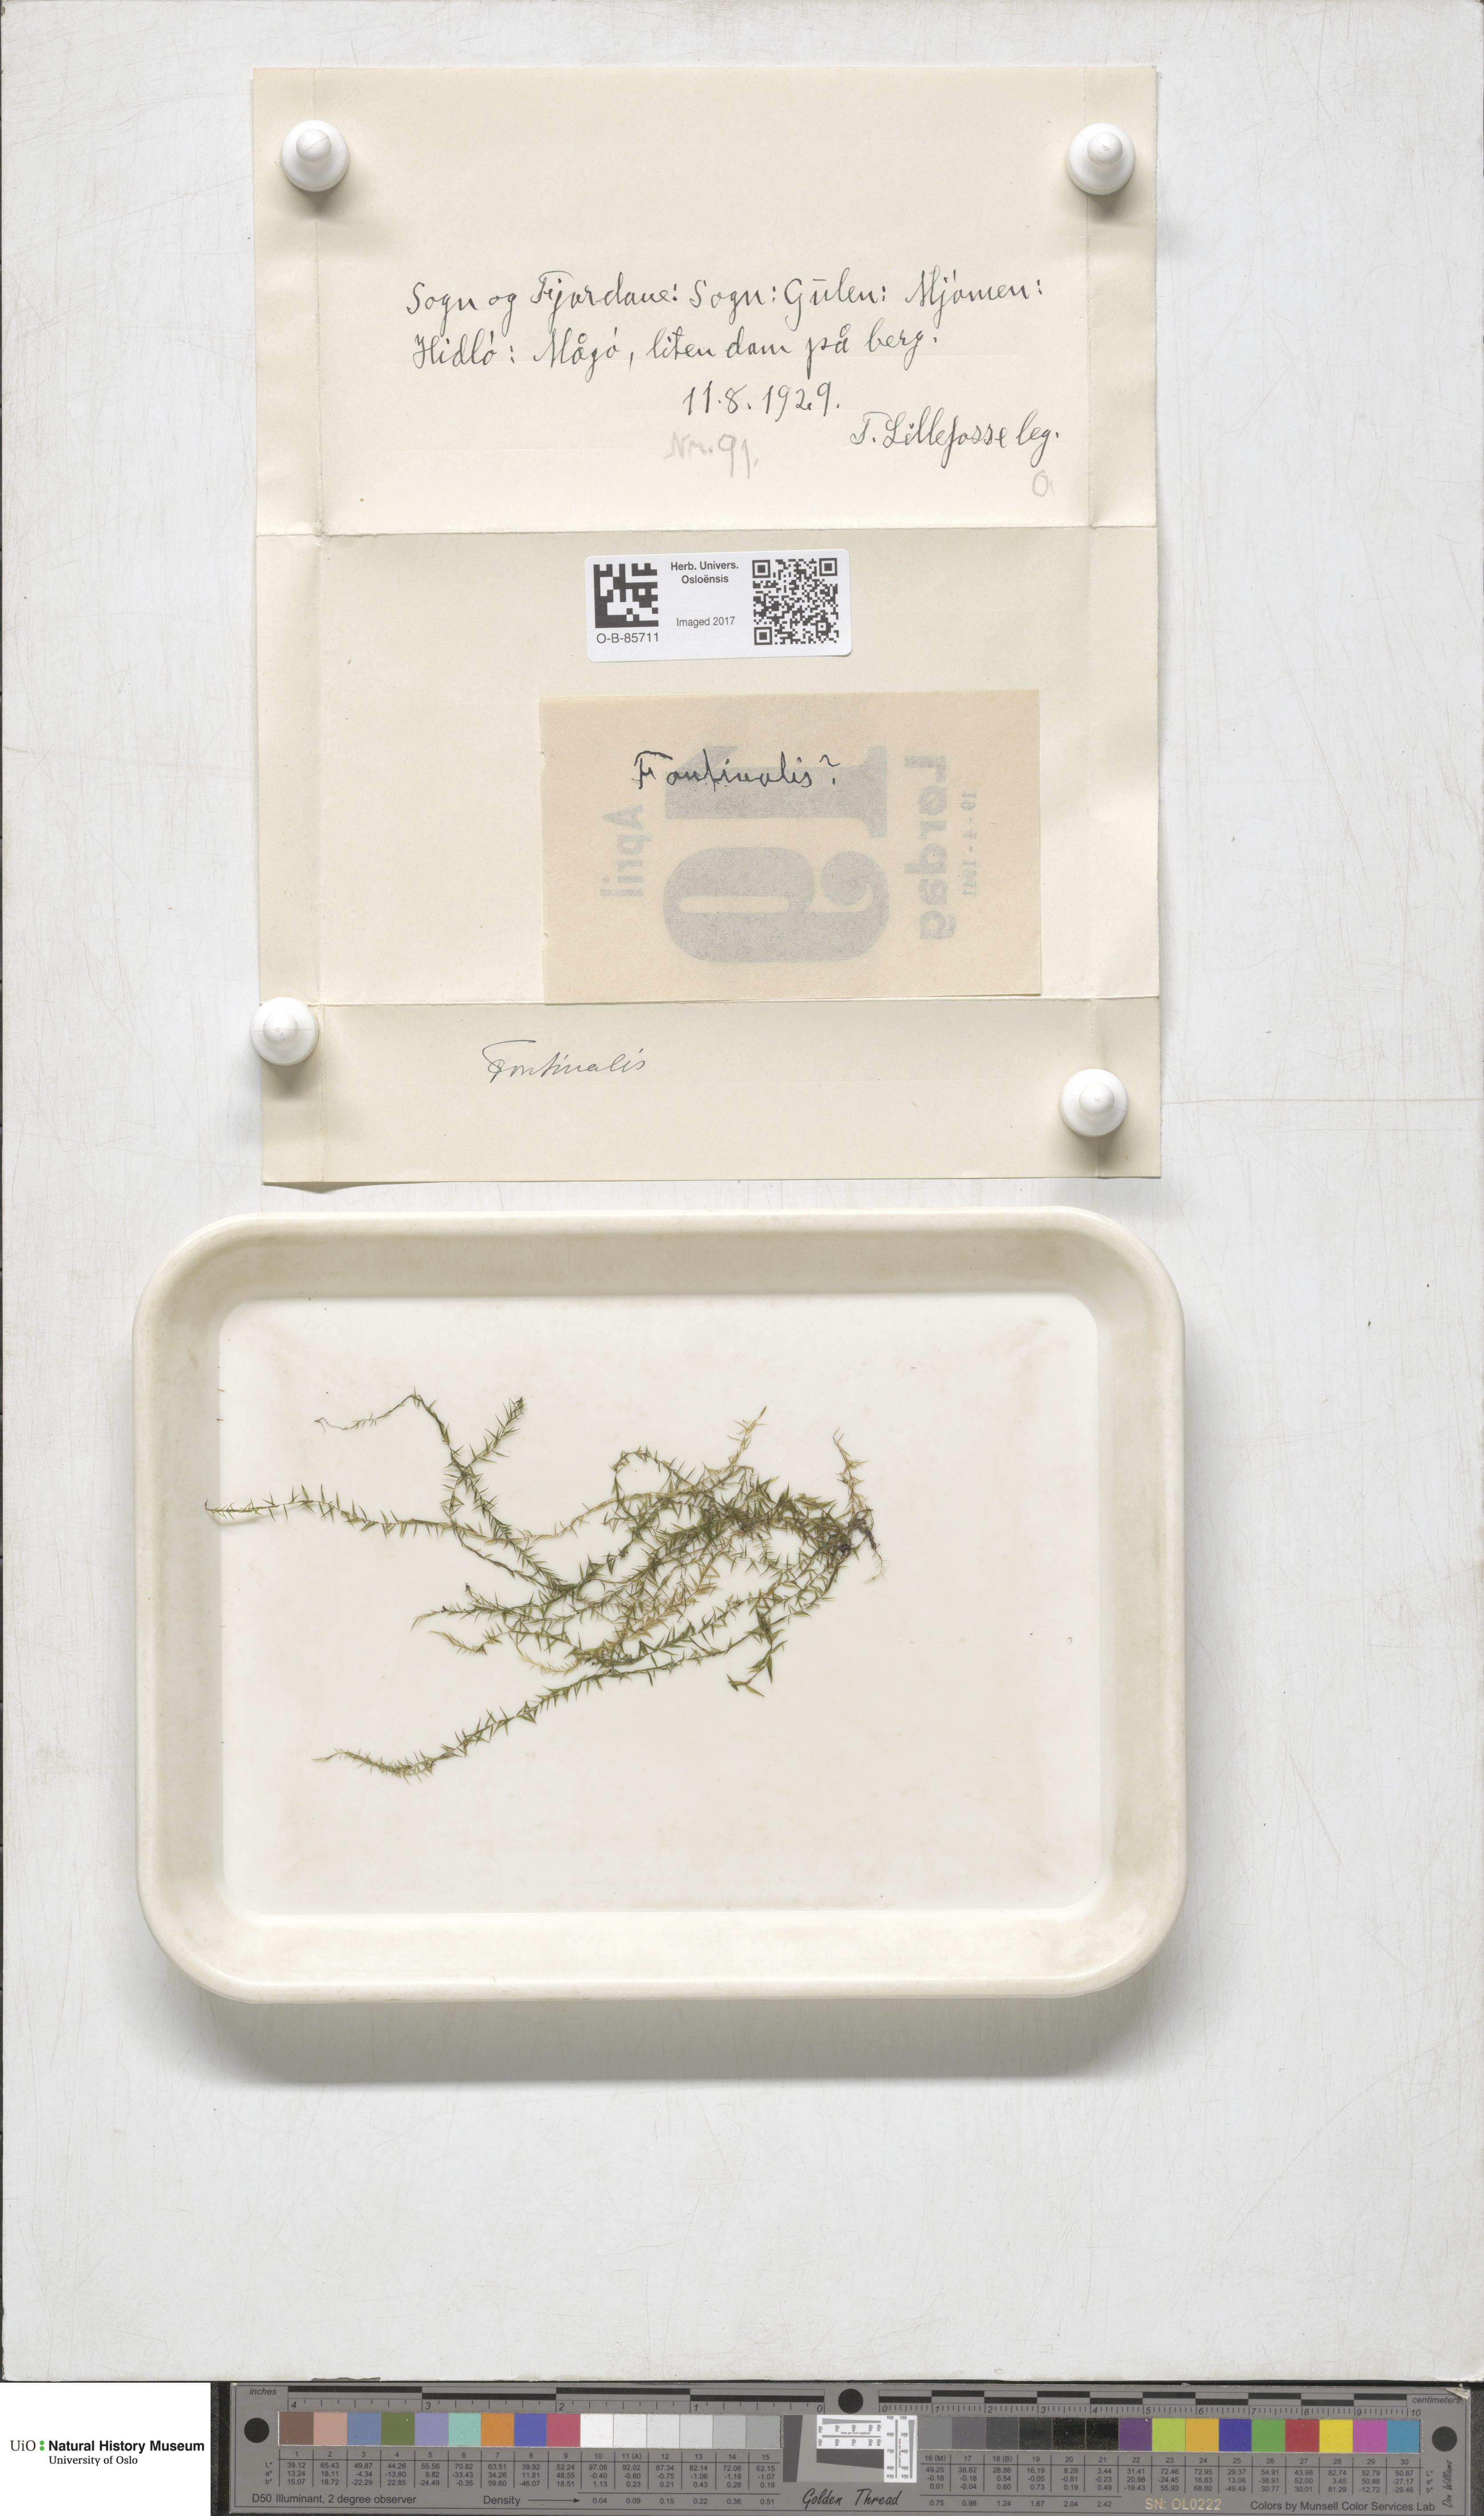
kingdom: Plantae
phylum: Bryophyta
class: Bryopsida
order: Hypnales
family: Fontinalaceae
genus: Fontinalis
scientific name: Fontinalis
